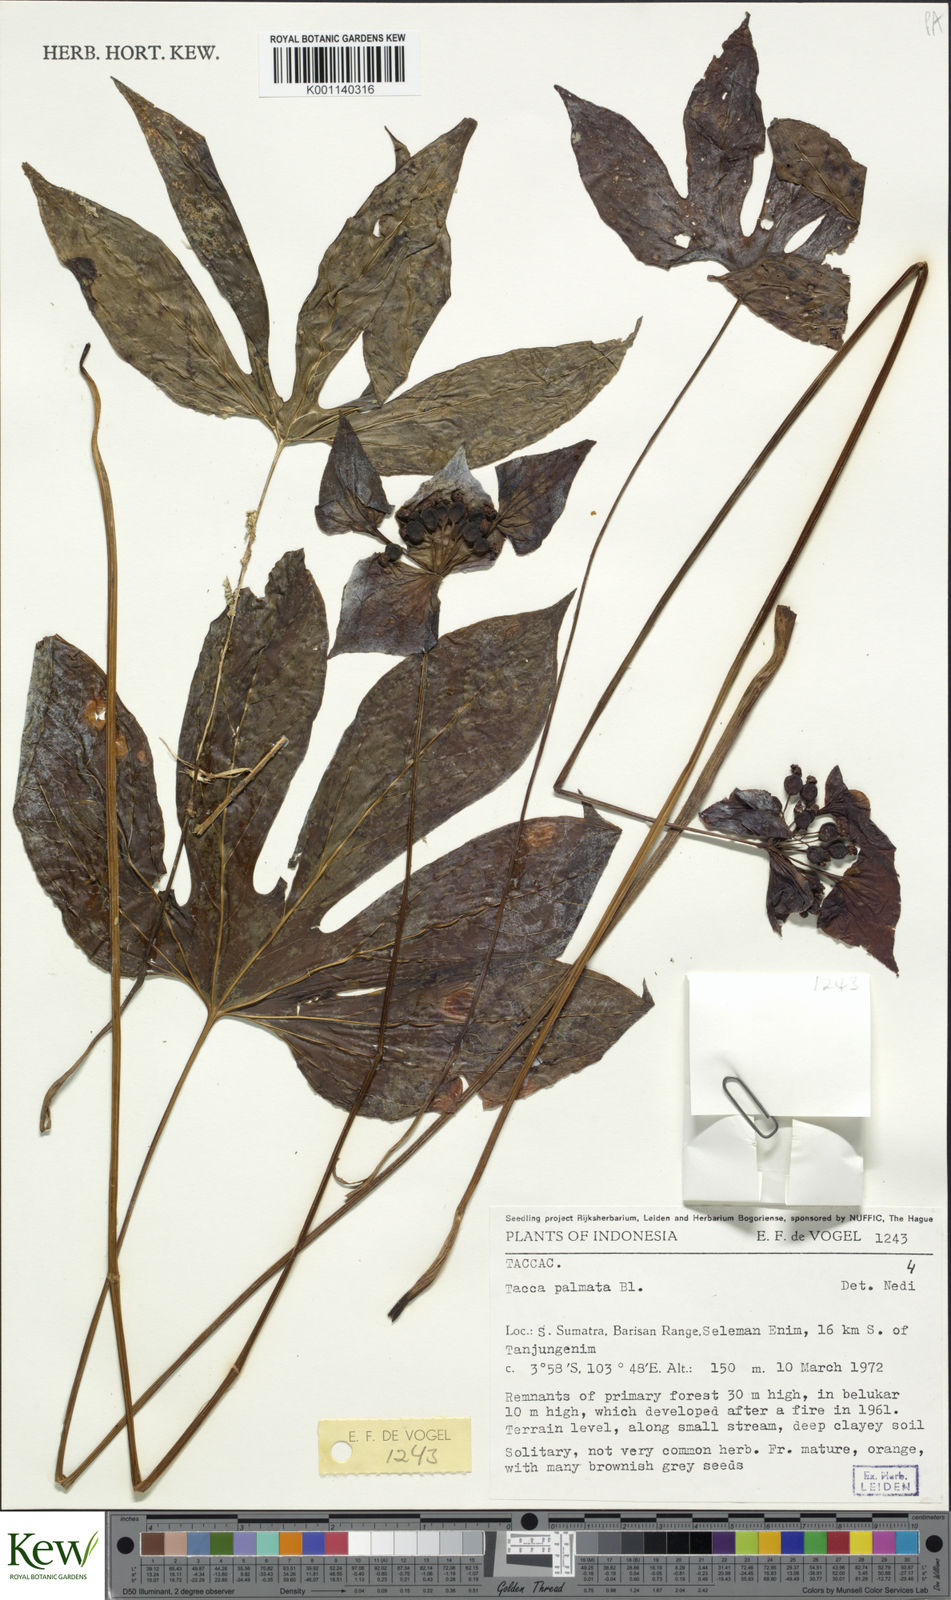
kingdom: Plantae
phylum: Tracheophyta
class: Liliopsida
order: Dioscoreales
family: Dioscoreaceae
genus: Tacca
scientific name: Tacca palmata
